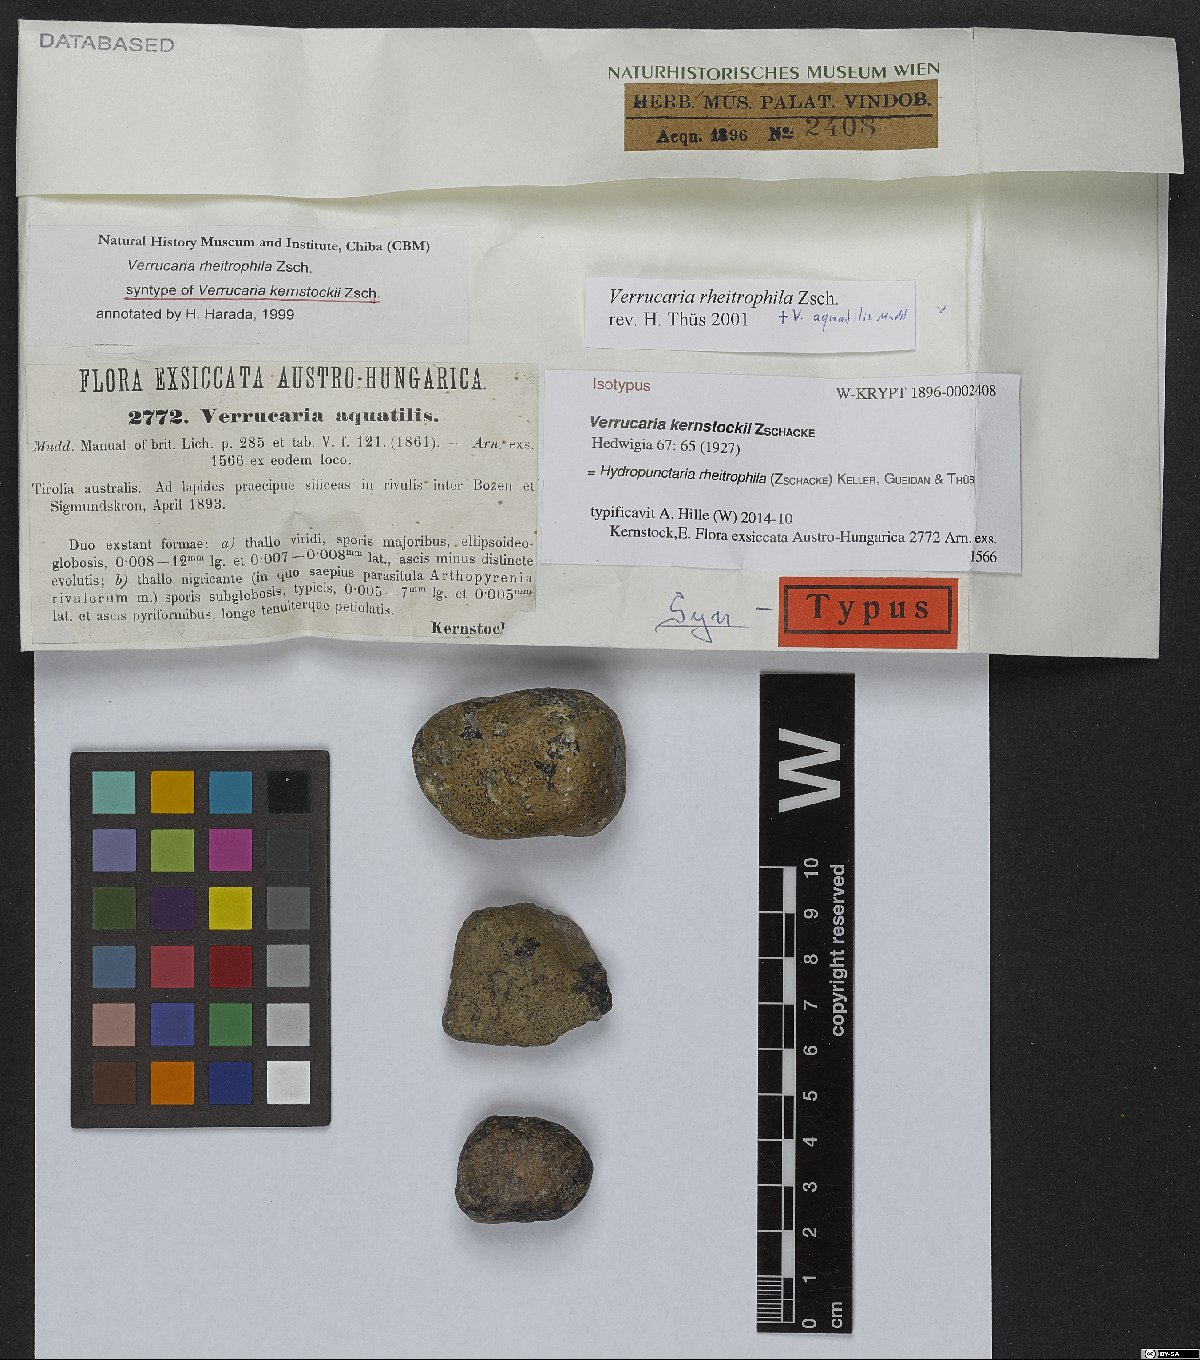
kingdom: Fungi
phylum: Ascomycota
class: Eurotiomycetes
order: Verrucariales
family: Verrucariaceae
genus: Hydropunctaria
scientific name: Hydropunctaria rheitrophila
